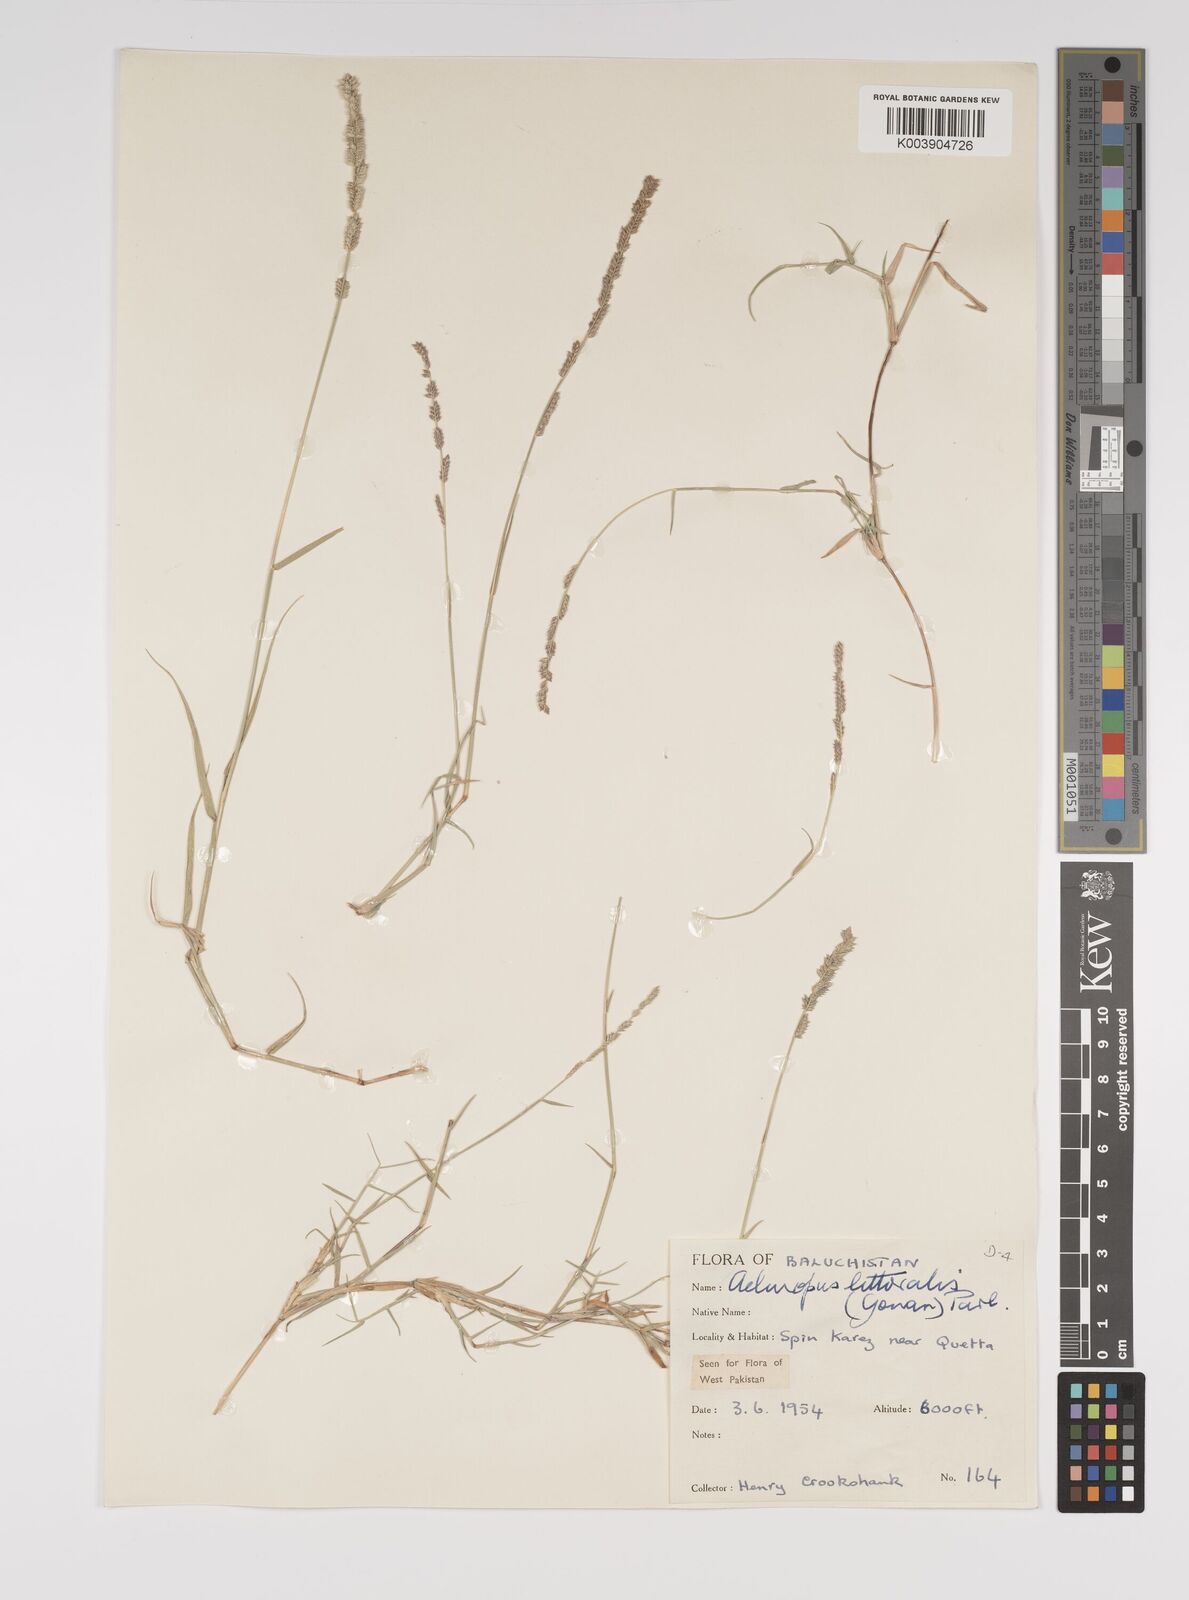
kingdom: Plantae
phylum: Tracheophyta
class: Liliopsida
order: Poales
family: Poaceae
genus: Aeluropus
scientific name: Aeluropus littoralis
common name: Indian walnut
